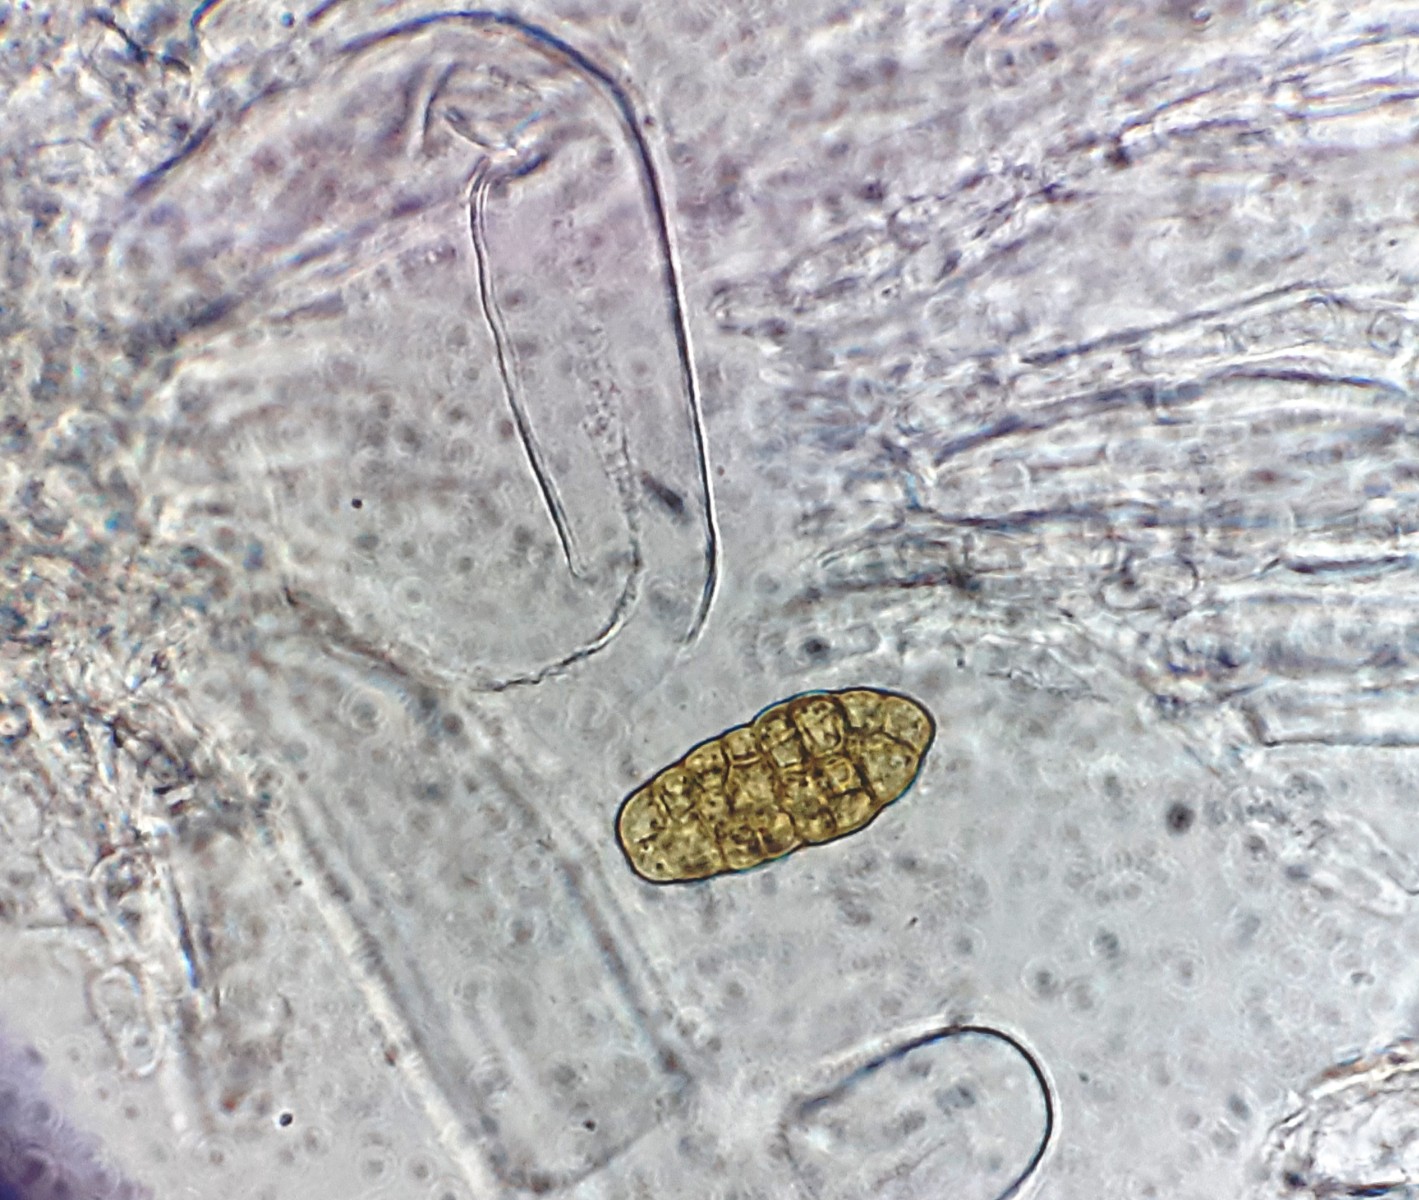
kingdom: Fungi
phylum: Ascomycota
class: Dothideomycetes
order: Pleosporales
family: Pleosporaceae
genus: Stemphylium
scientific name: Stemphylium vesicarium
